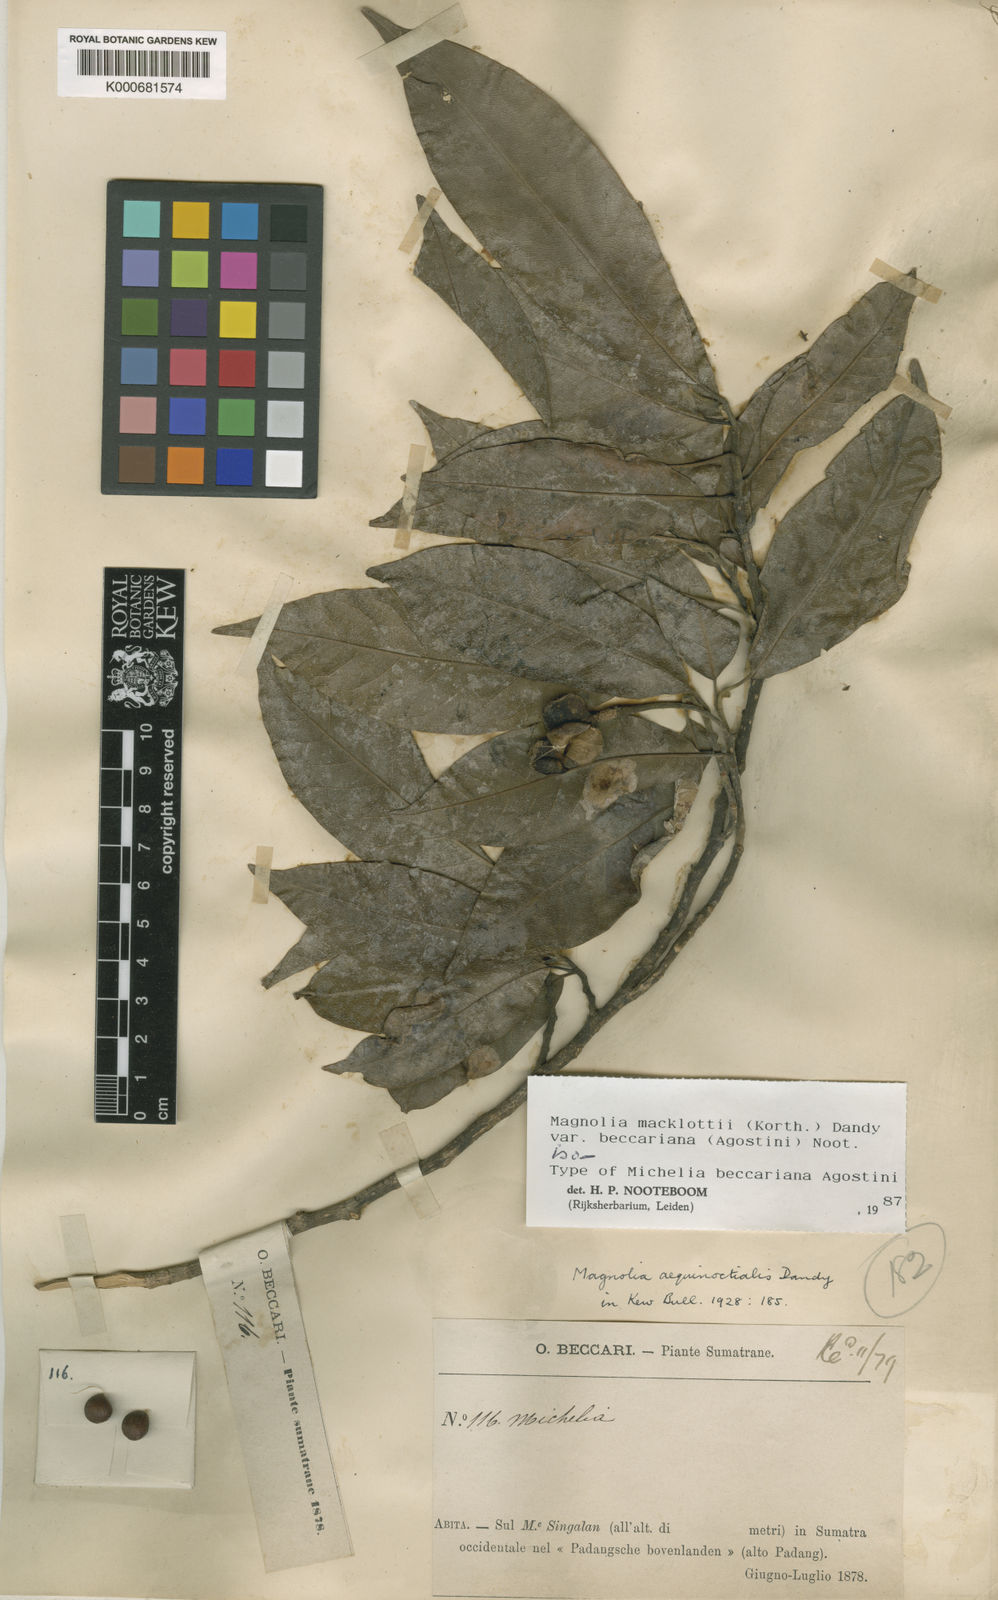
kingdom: Plantae
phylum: Tracheophyta
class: Magnoliopsida
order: Magnoliales
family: Magnoliaceae
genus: Magnolia
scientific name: Magnolia macklottii
